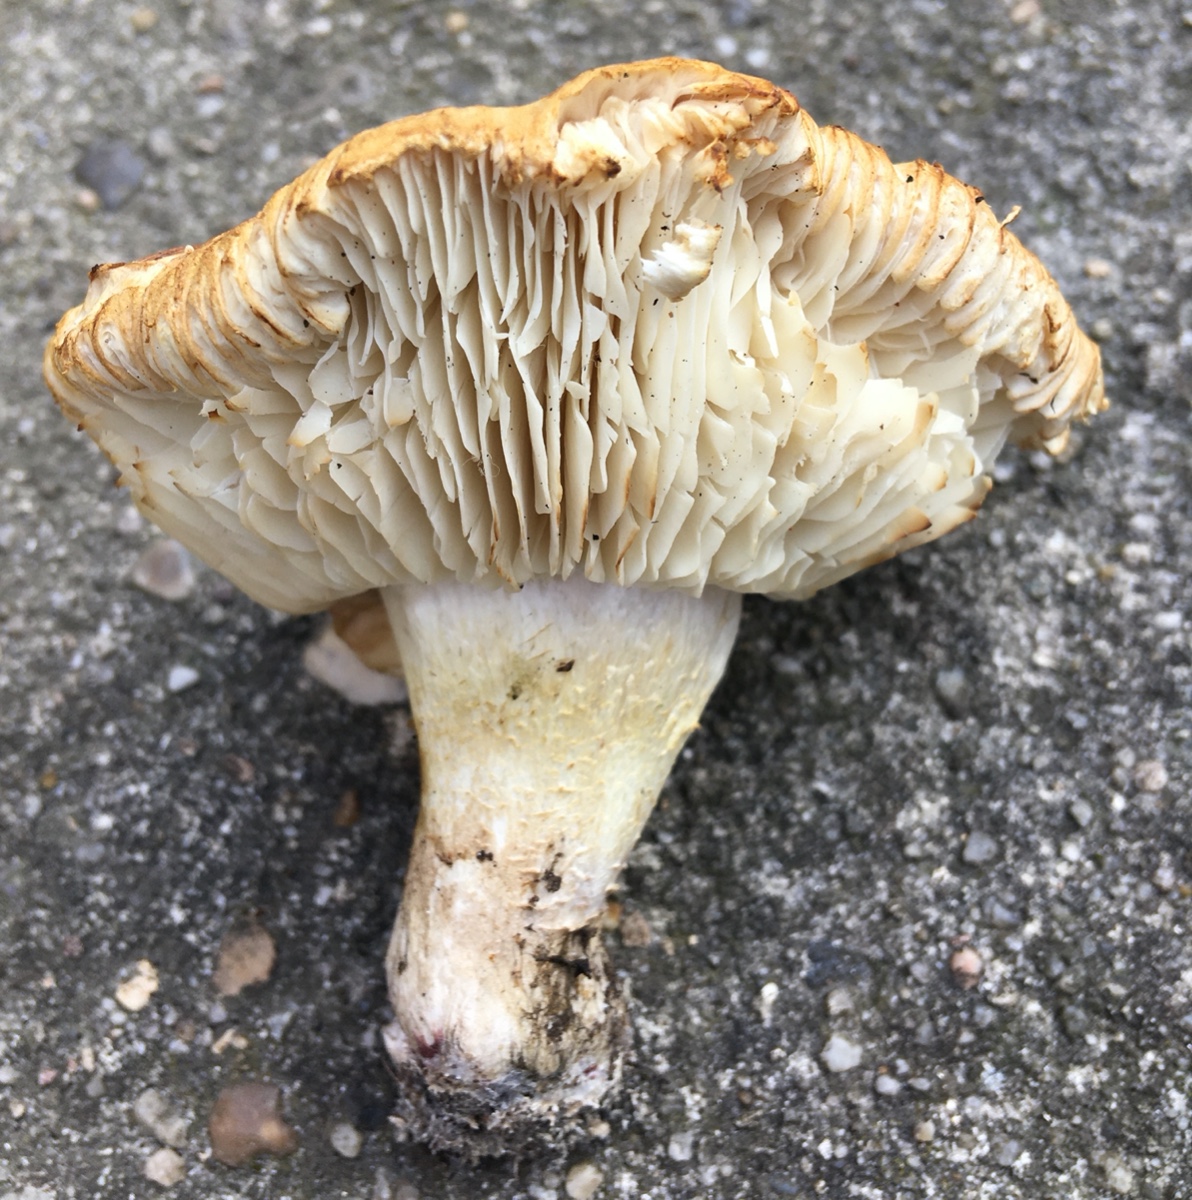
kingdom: Fungi
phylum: Basidiomycota
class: Agaricomycetes
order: Agaricales
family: Tricholomataceae
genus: Tricholoma
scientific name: Tricholoma apium
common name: suppe-ridderhat
